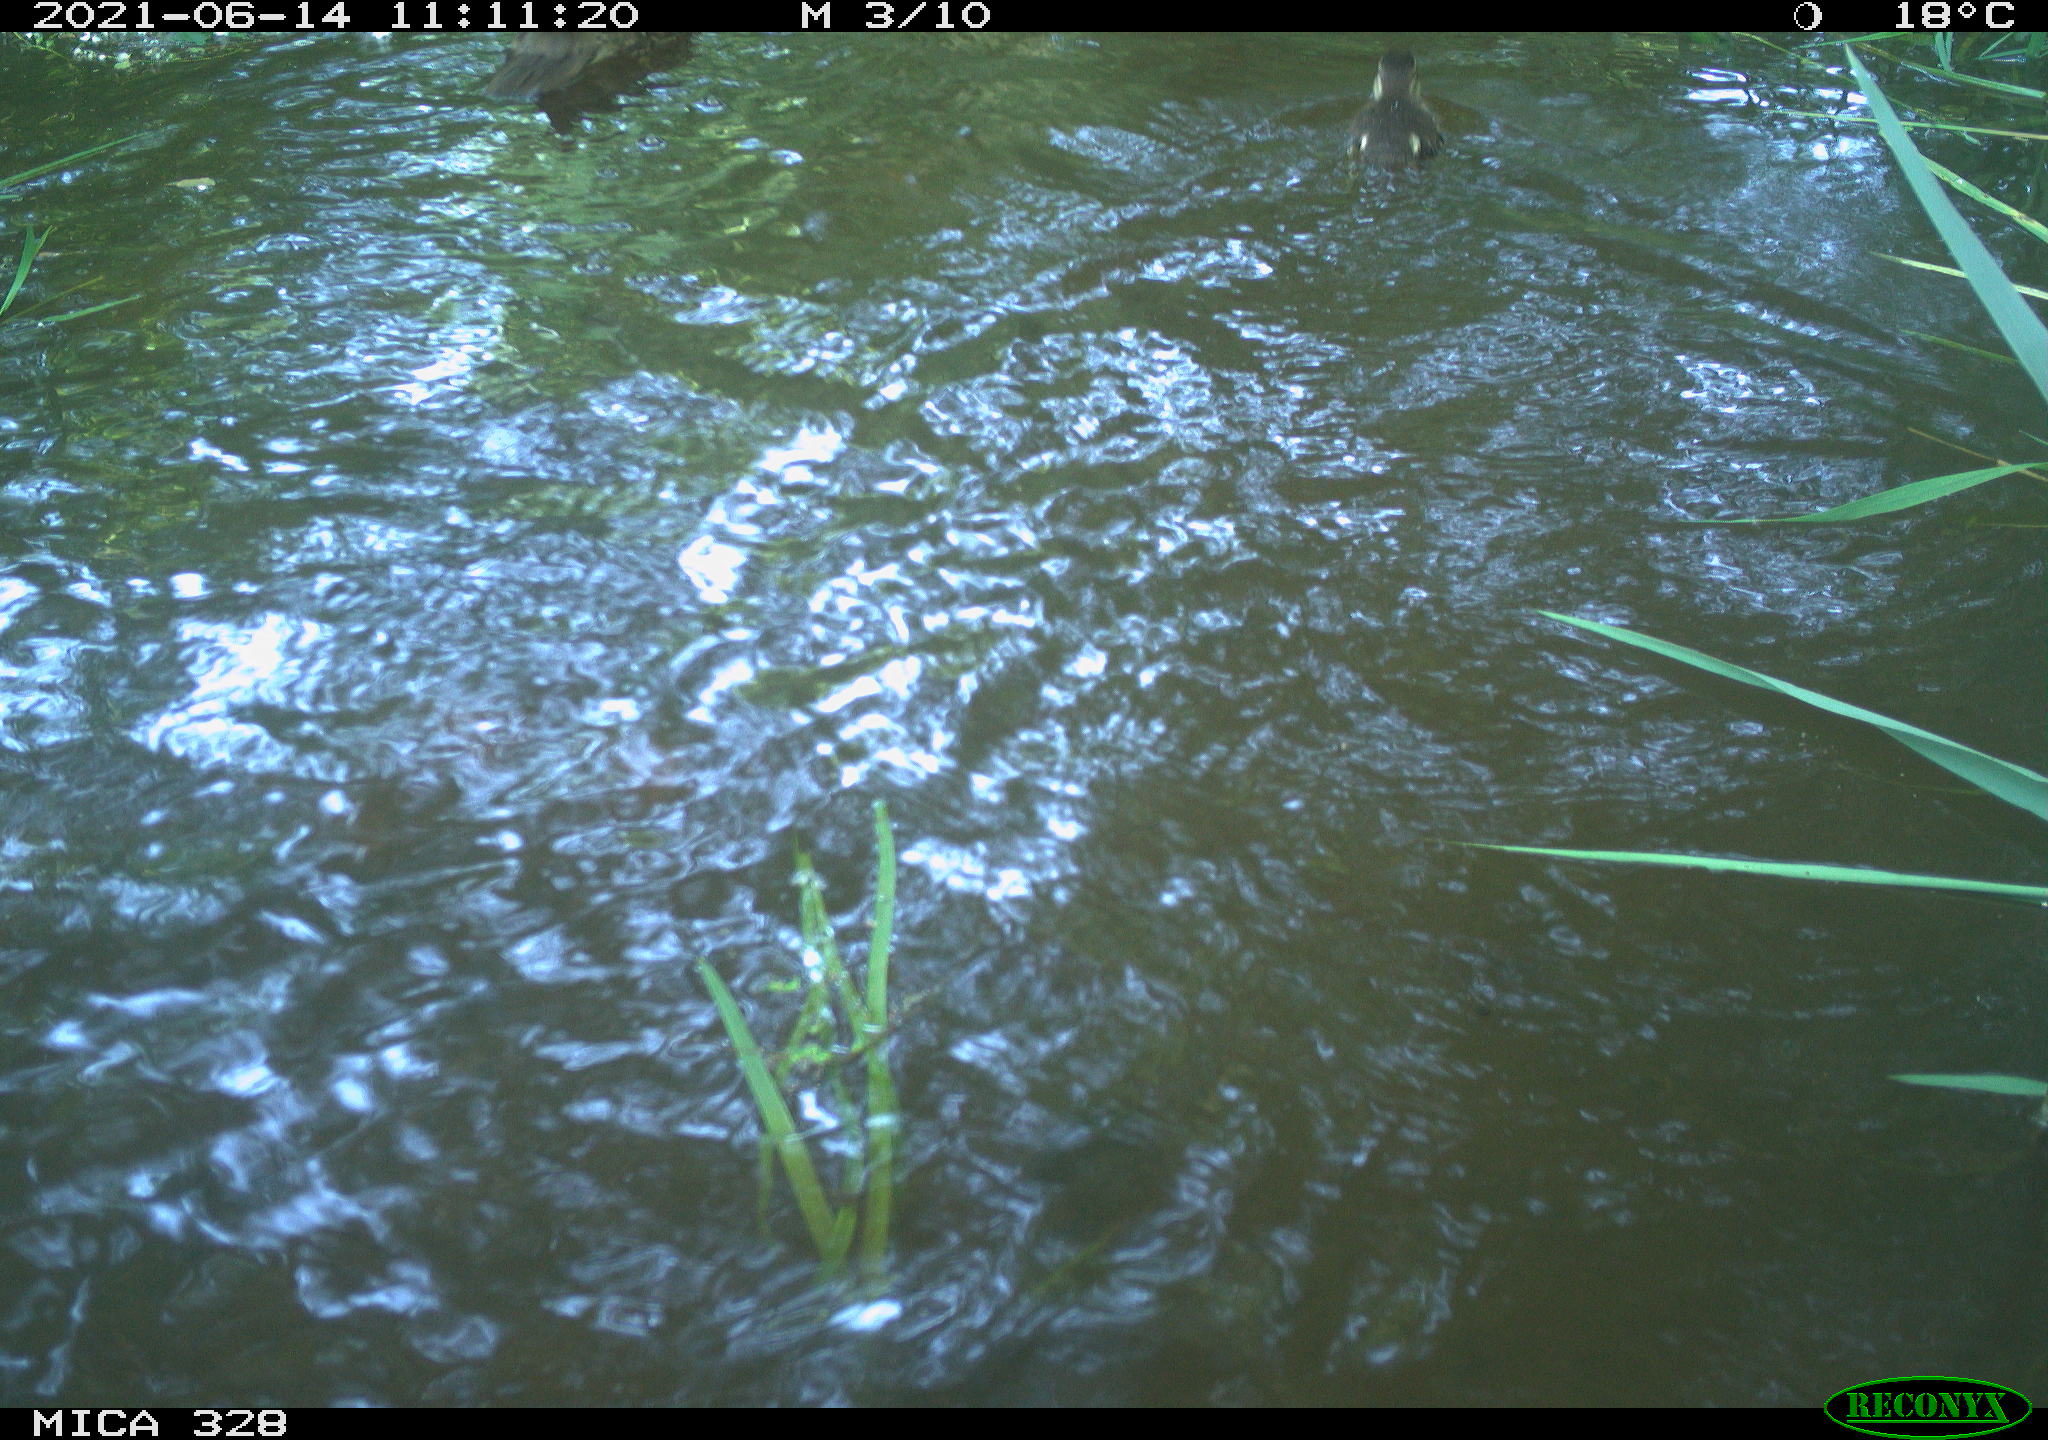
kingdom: Animalia
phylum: Chordata
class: Aves
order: Anseriformes
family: Anatidae
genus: Aix
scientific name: Aix galericulata
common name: Mandarin duck
